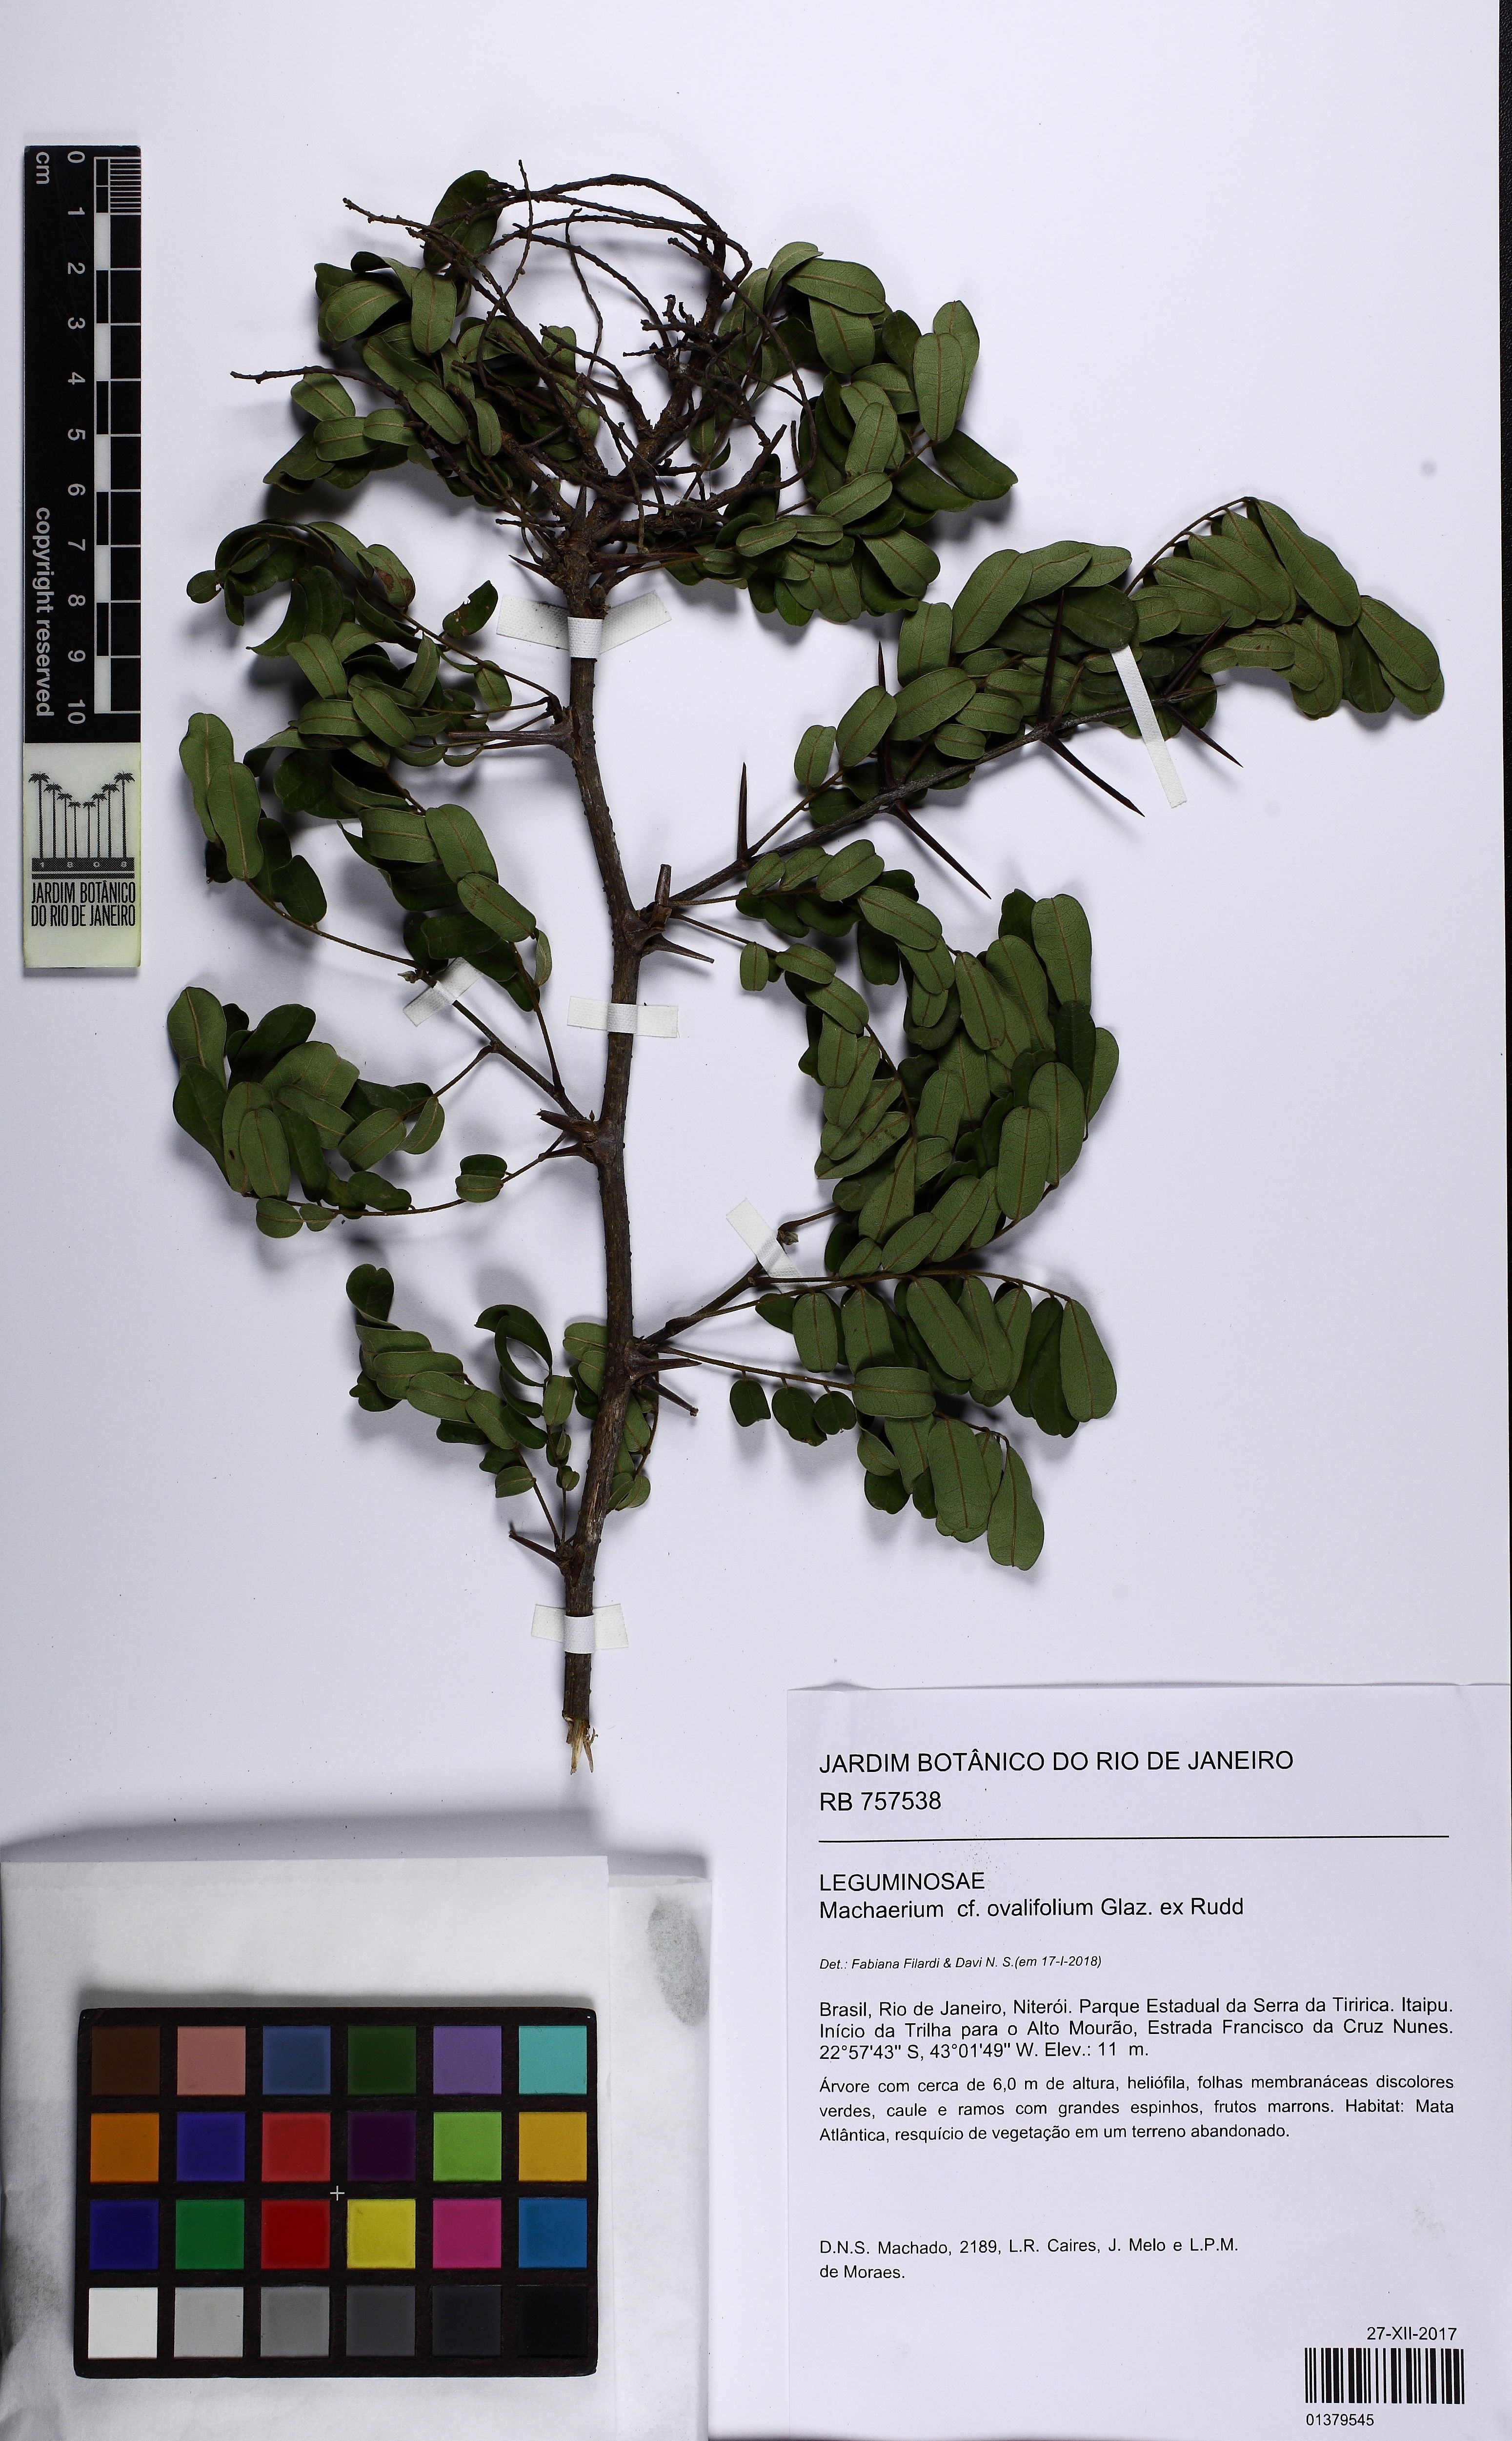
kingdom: Plantae
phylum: Tracheophyta
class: Magnoliopsida
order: Fabales
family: Fabaceae
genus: Machaerium
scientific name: Machaerium ovalifolium
